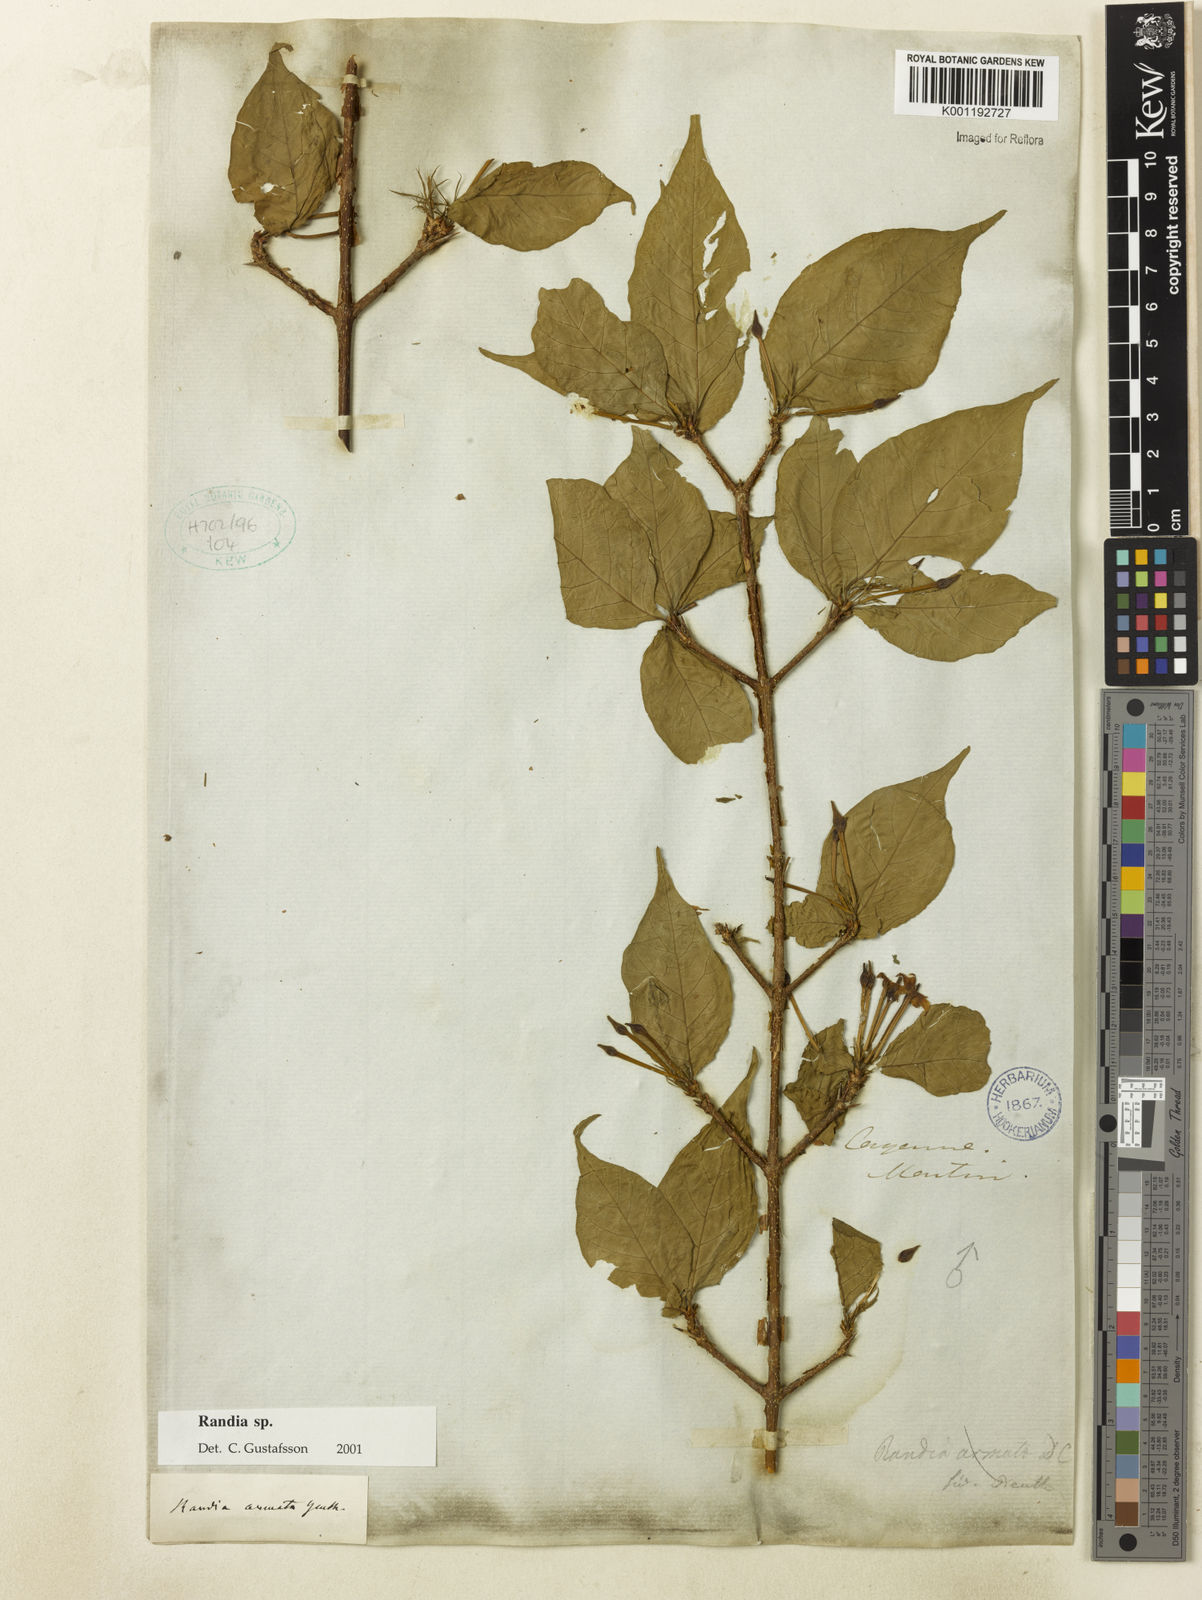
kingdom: Plantae
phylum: Tracheophyta
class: Magnoliopsida
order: Gentianales
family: Rubiaceae
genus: Randia
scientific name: Randia
